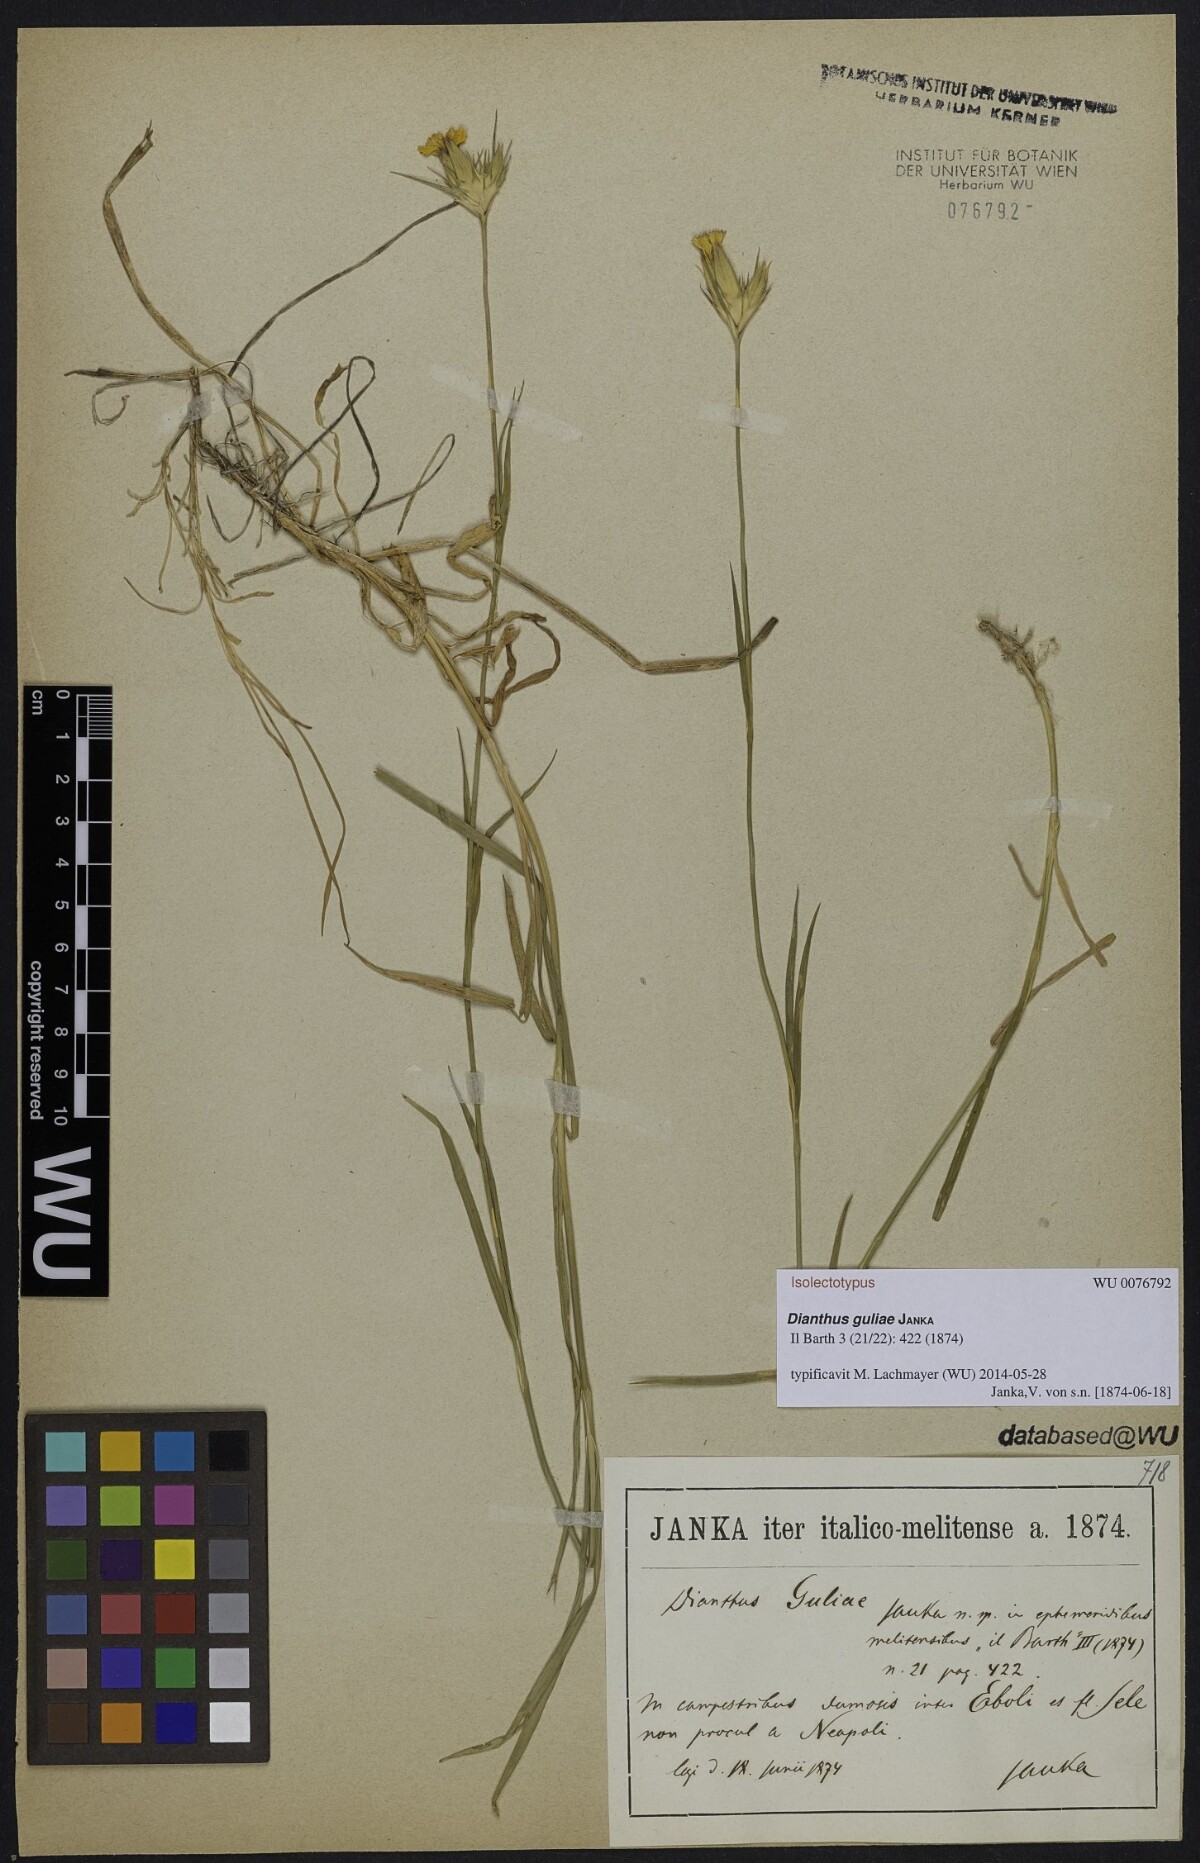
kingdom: Plantae
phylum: Tracheophyta
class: Magnoliopsida
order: Caryophyllales
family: Caryophyllaceae
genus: Dianthus
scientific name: Dianthus guliae
